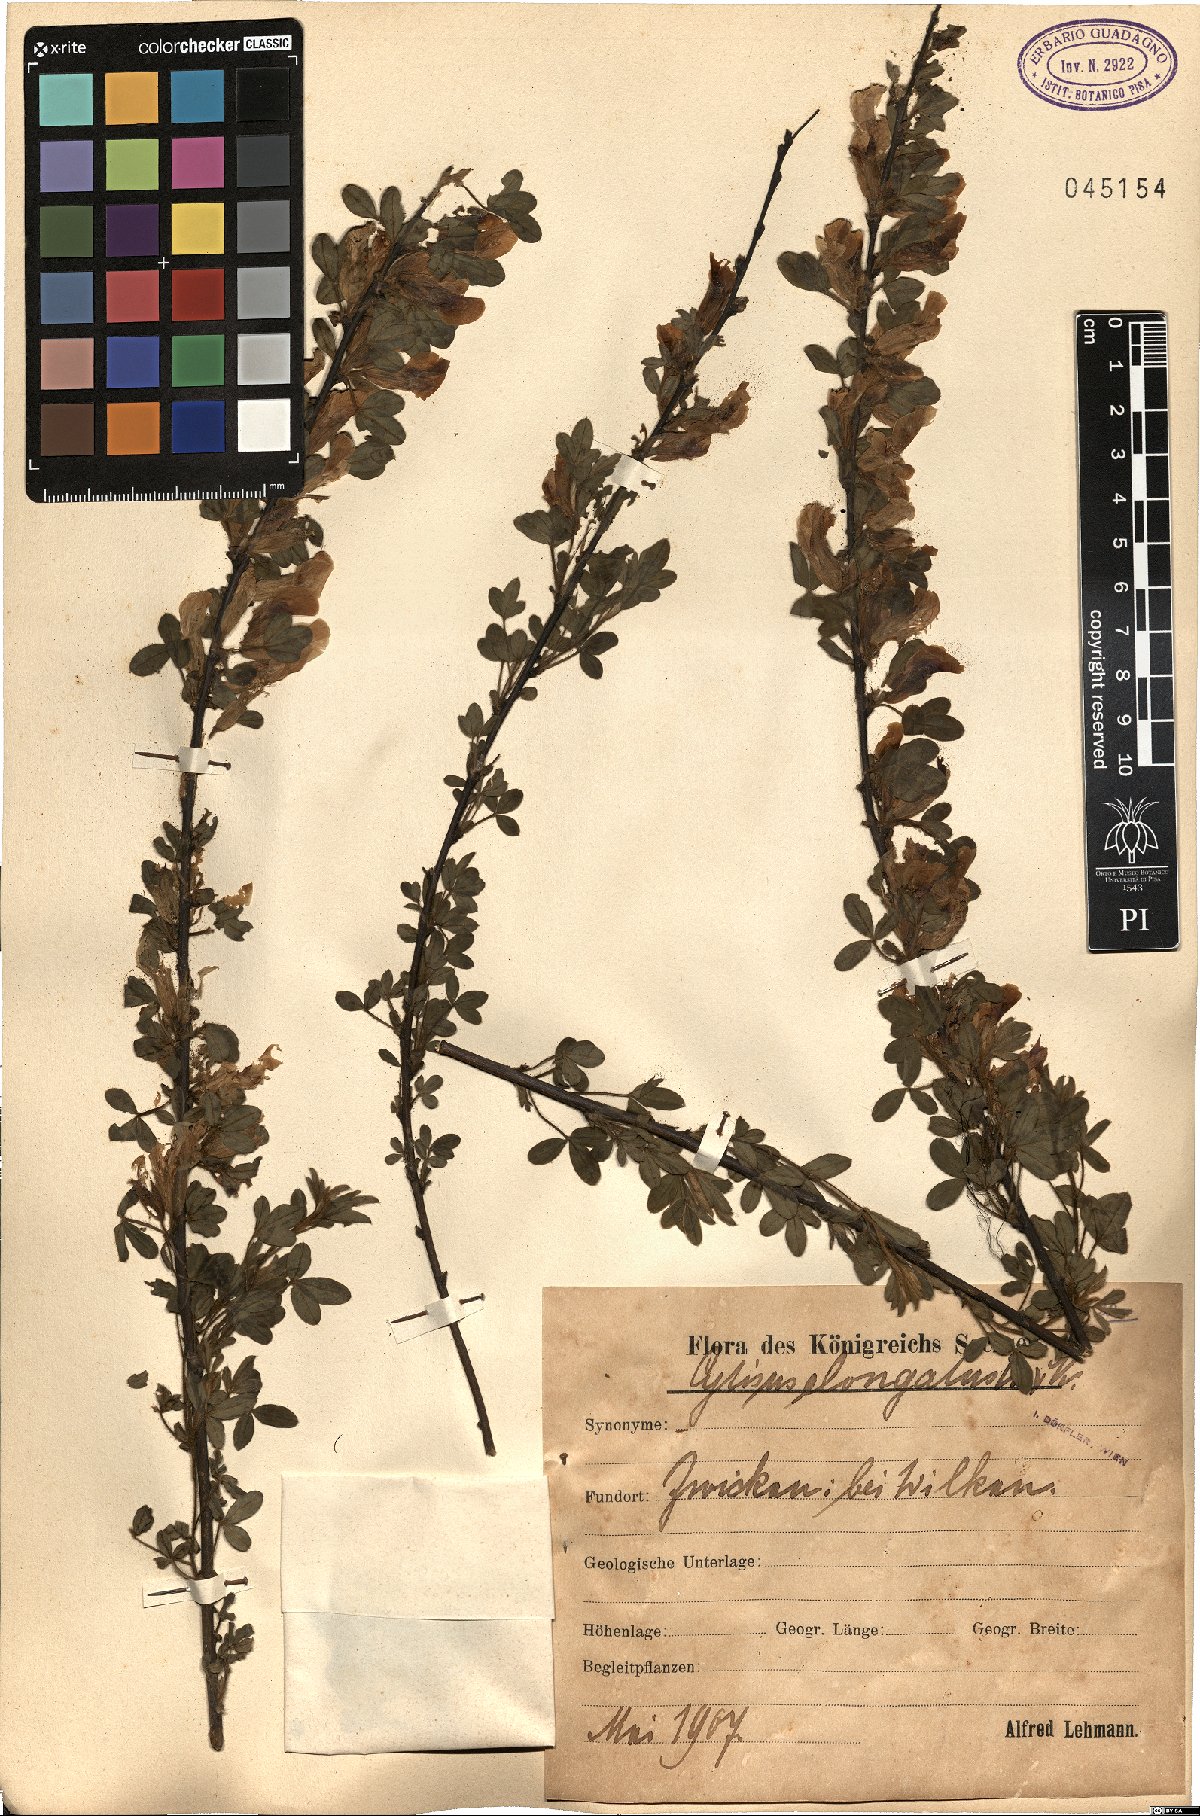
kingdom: Plantae
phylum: Tracheophyta
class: Magnoliopsida
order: Fabales
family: Fabaceae
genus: Chamaecytisus
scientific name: Chamaecytisus elongatus
